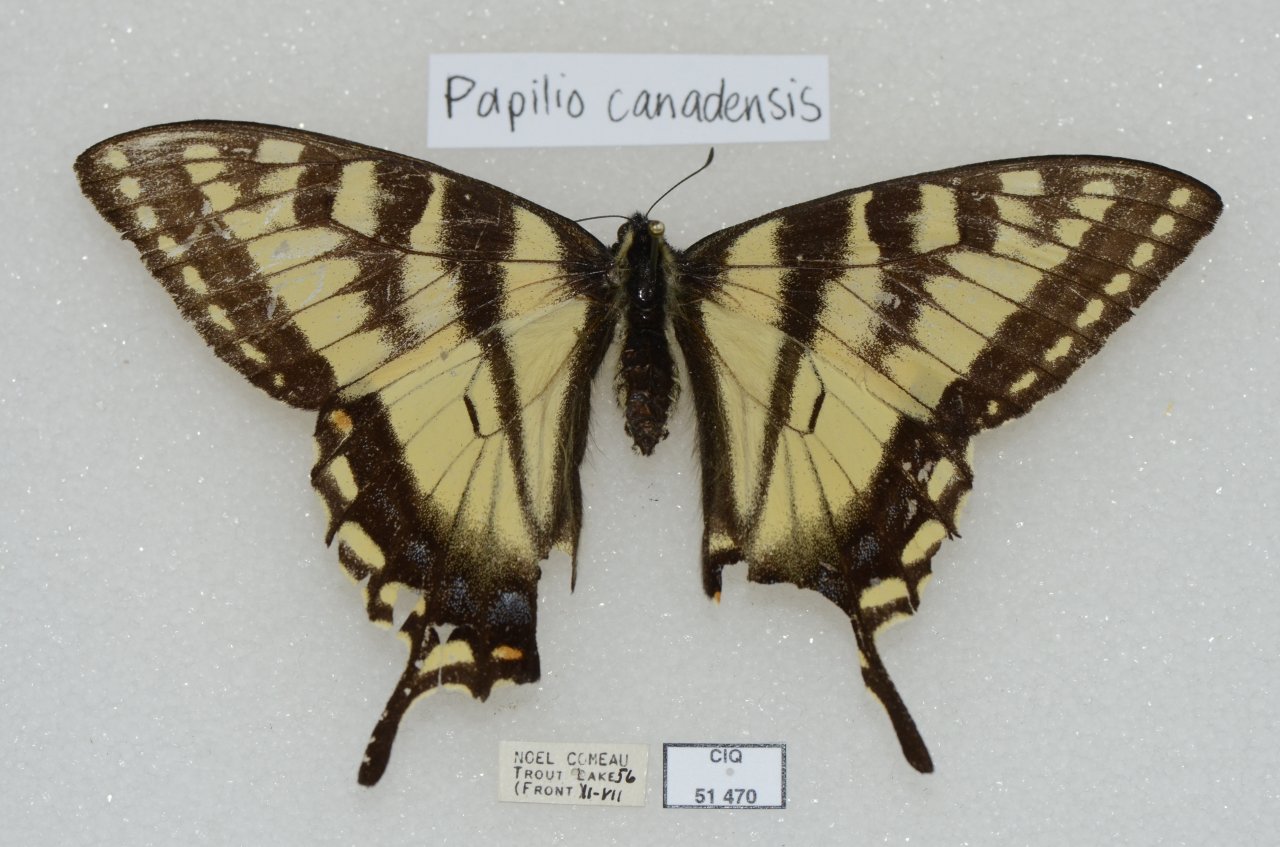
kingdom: Animalia
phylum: Arthropoda
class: Insecta
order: Lepidoptera
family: Papilionidae
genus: Pterourus
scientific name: Pterourus canadensis
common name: Canadian Tiger Swallowtail
